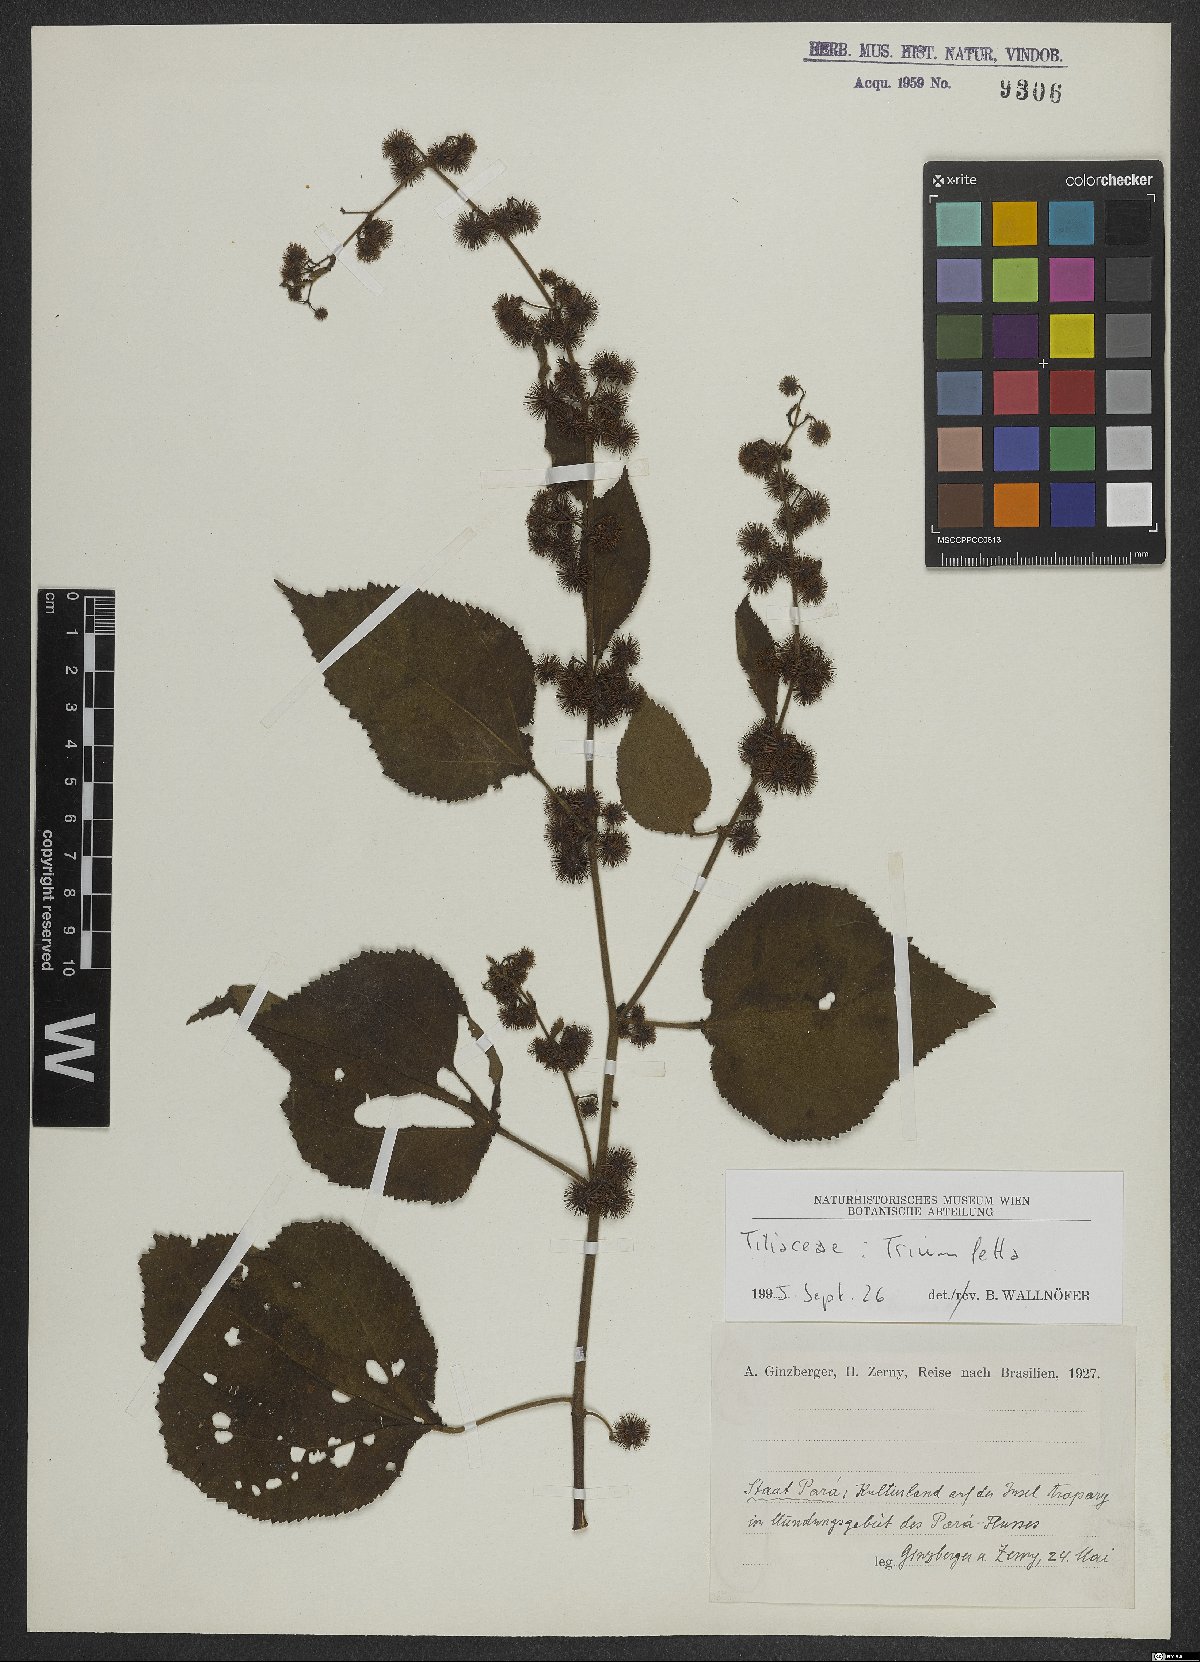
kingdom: Plantae
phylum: Tracheophyta
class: Magnoliopsida
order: Malvales
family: Malvaceae
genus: Triumfetta
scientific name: Triumfetta
